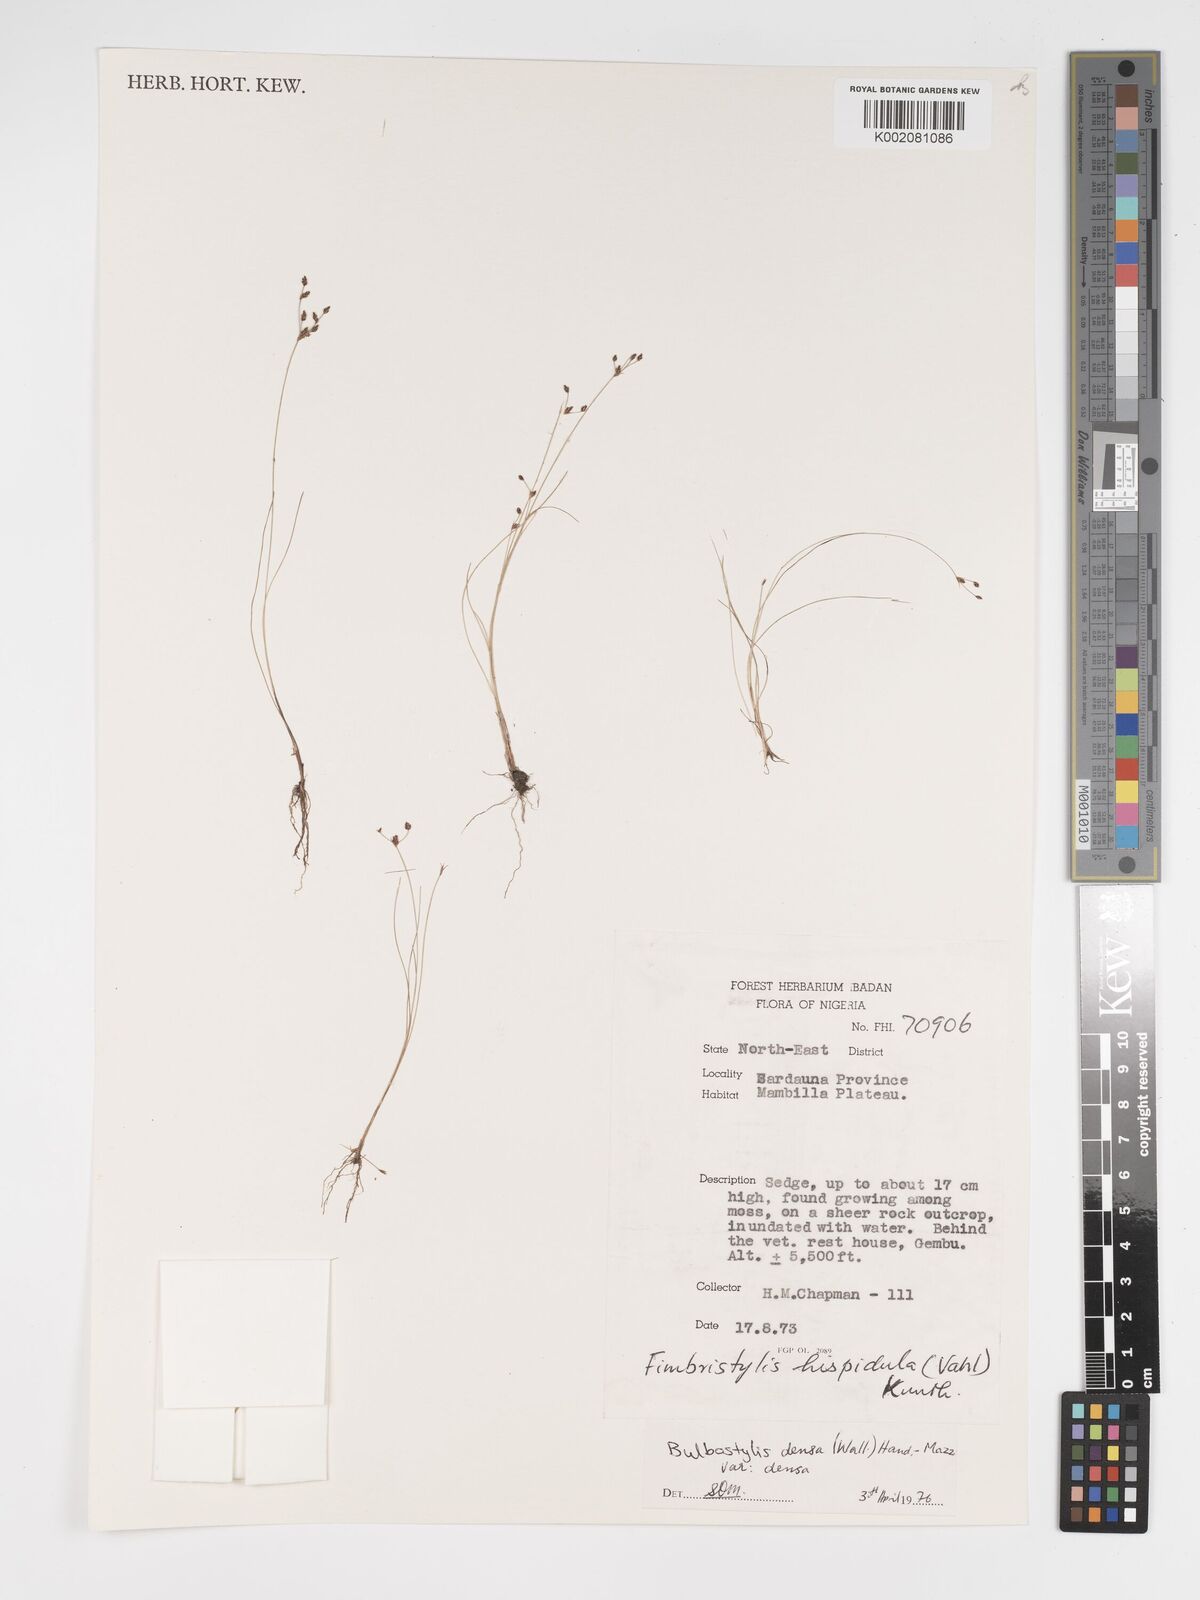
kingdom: Plantae
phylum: Tracheophyta
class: Liliopsida
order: Poales
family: Cyperaceae
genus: Bulbostylis
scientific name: Bulbostylis densa
